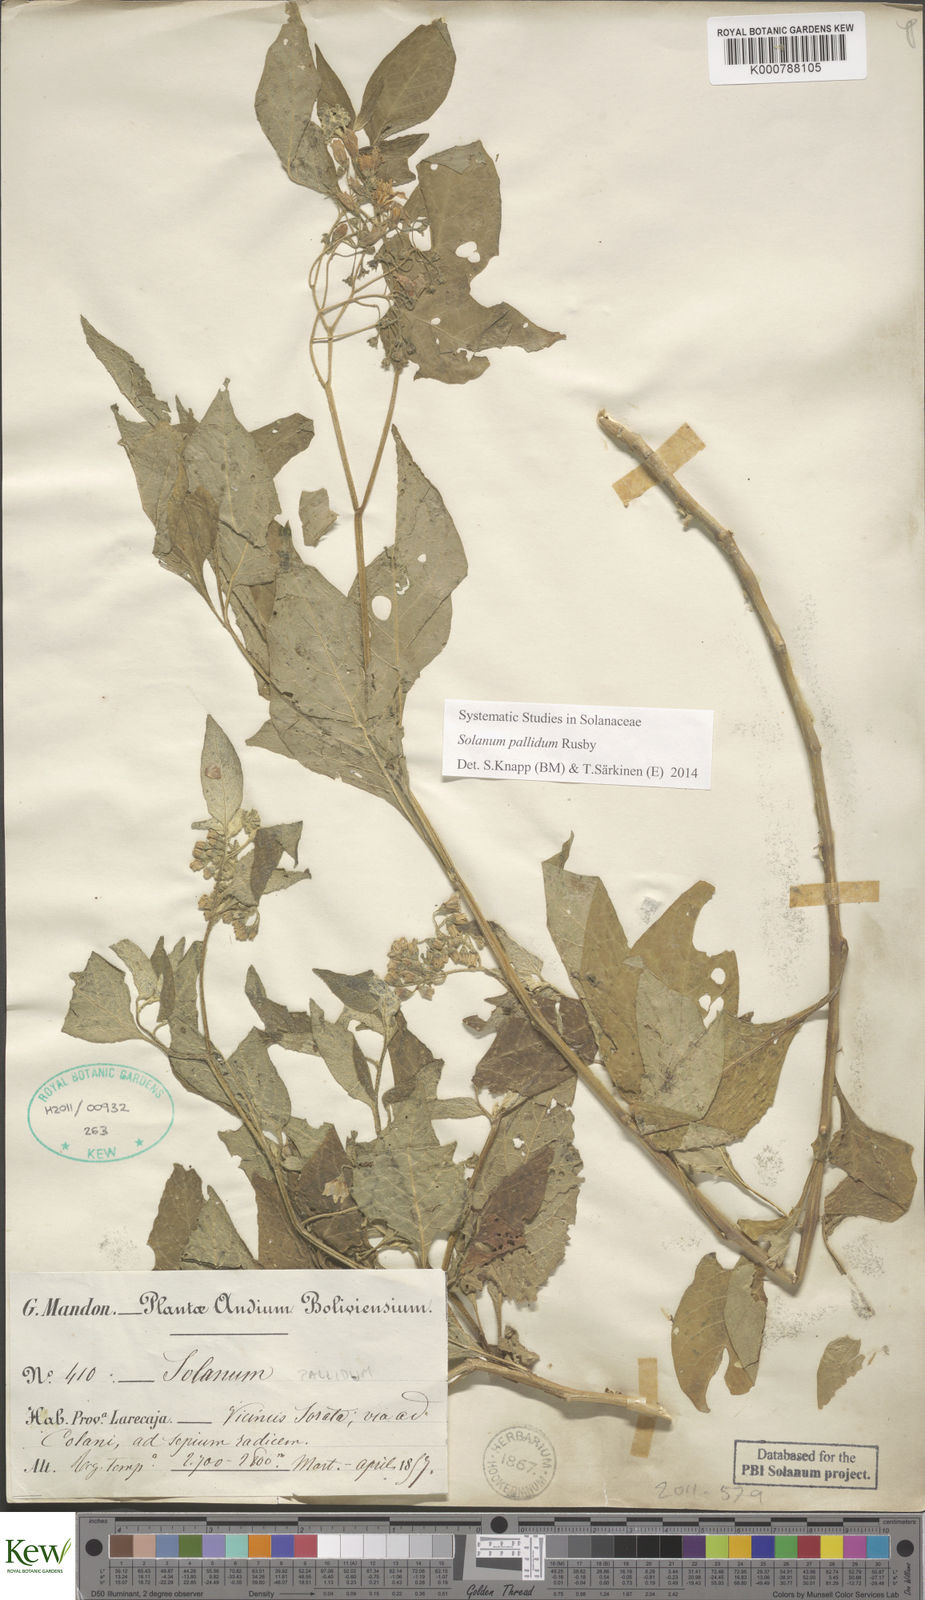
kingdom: Plantae
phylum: Tracheophyta
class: Magnoliopsida
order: Solanales
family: Solanaceae
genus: Solanum
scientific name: Solanum pallidum
